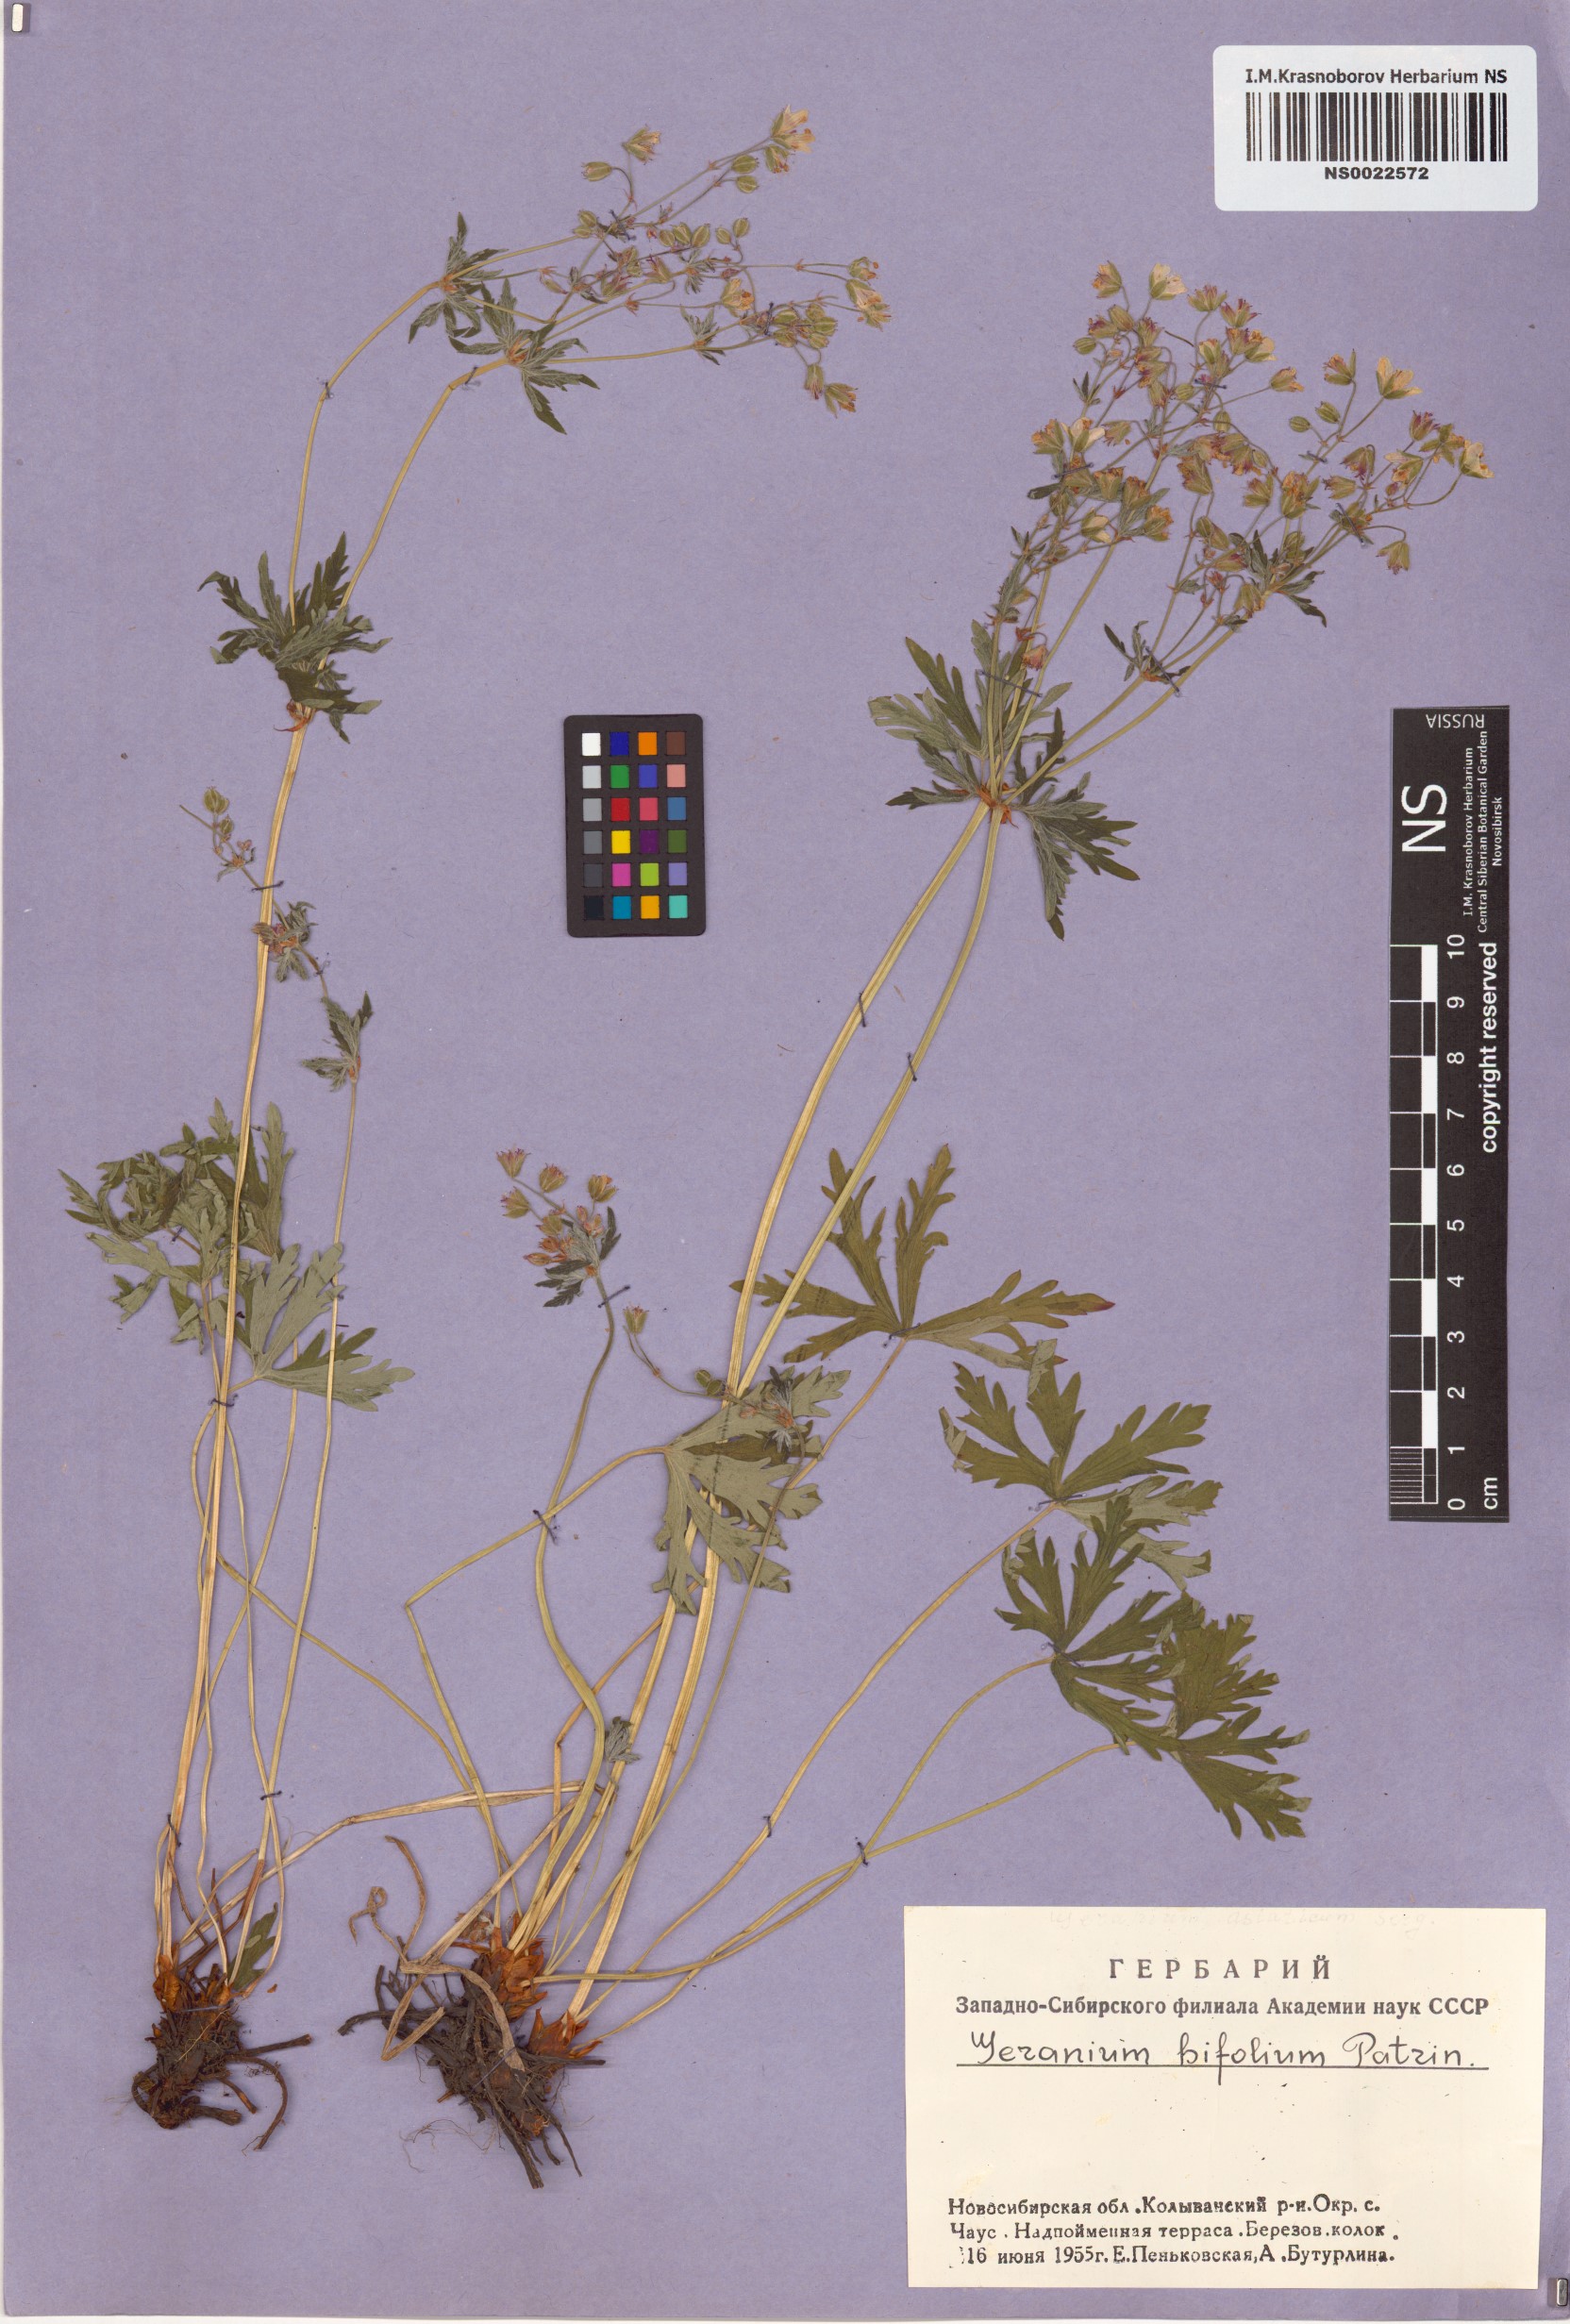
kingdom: Plantae
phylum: Tracheophyta
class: Magnoliopsida
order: Geraniales
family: Geraniaceae
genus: Geranium
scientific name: Geranium pseudosibiricum
